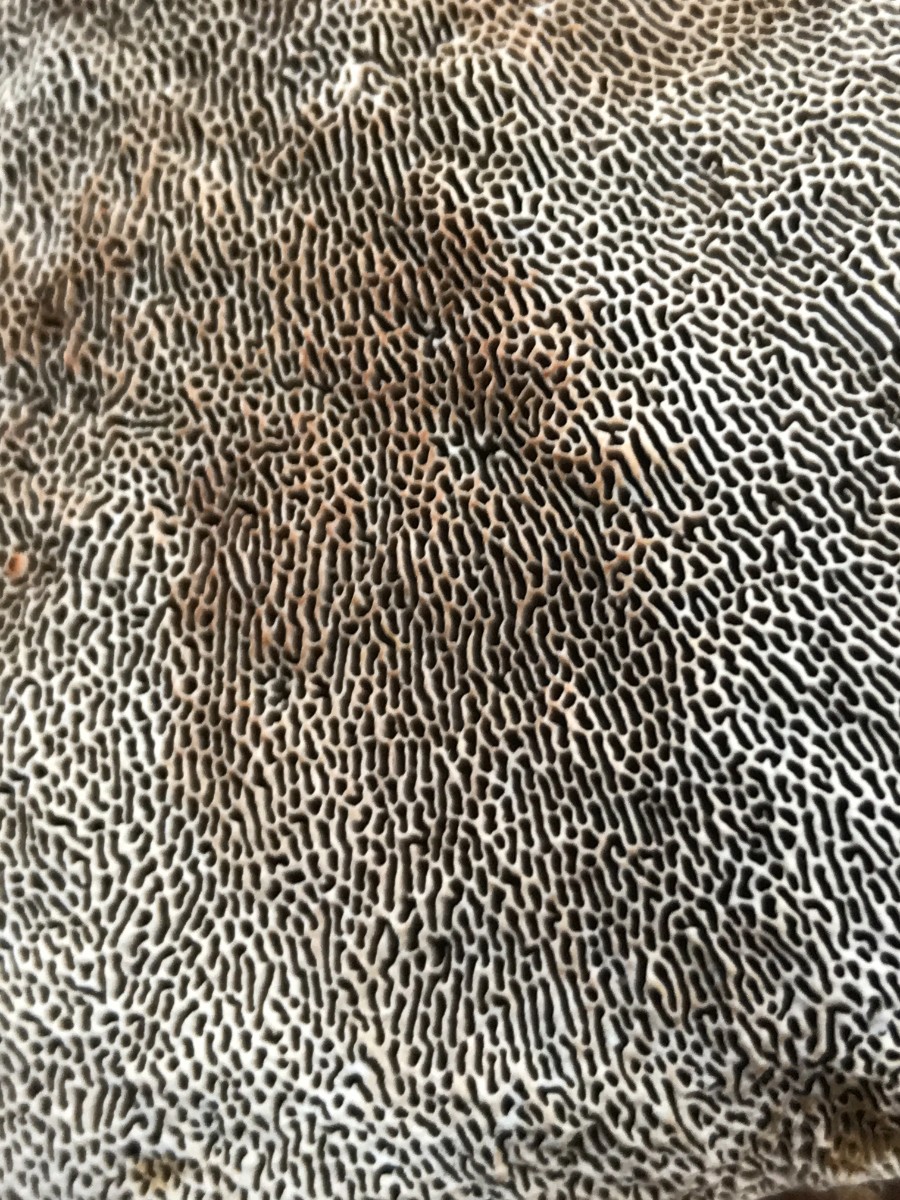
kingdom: Fungi
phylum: Basidiomycota
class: Agaricomycetes
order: Polyporales
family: Polyporaceae
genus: Daedaleopsis
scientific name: Daedaleopsis confragosa
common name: rødmende læderporesvamp
